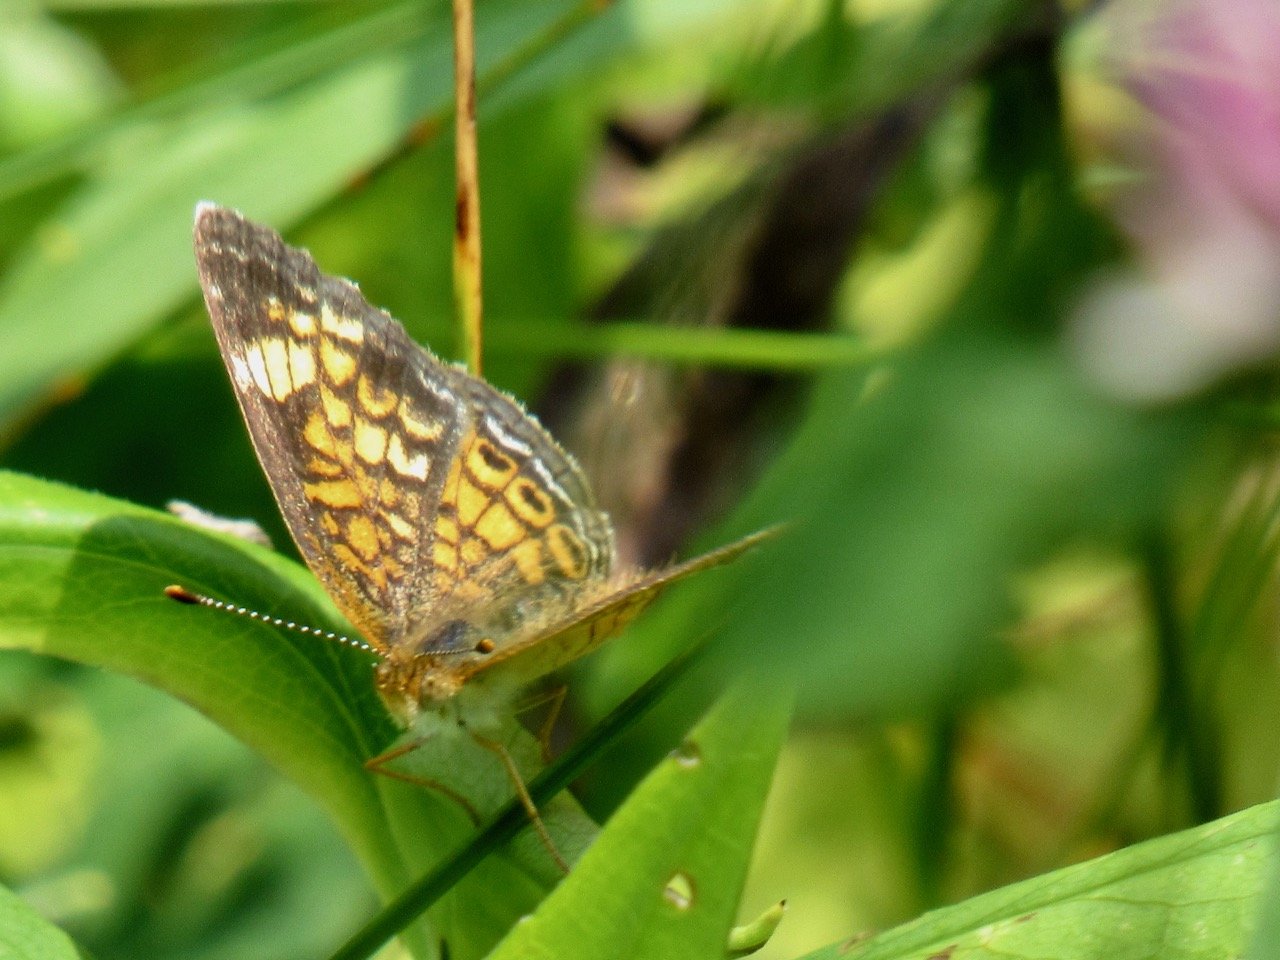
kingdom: Animalia
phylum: Arthropoda
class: Insecta
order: Lepidoptera
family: Nymphalidae
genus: Phyciodes
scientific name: Phyciodes tharos
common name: Pearl Crescent
